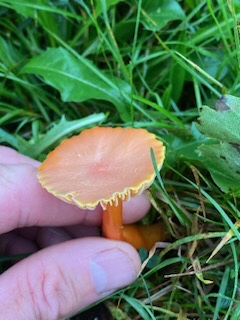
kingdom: Fungi
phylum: Basidiomycota
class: Agaricomycetes
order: Agaricales
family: Hygrophoraceae
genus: Hygrocybe
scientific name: Hygrocybe reidii
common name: honning-vokshat
